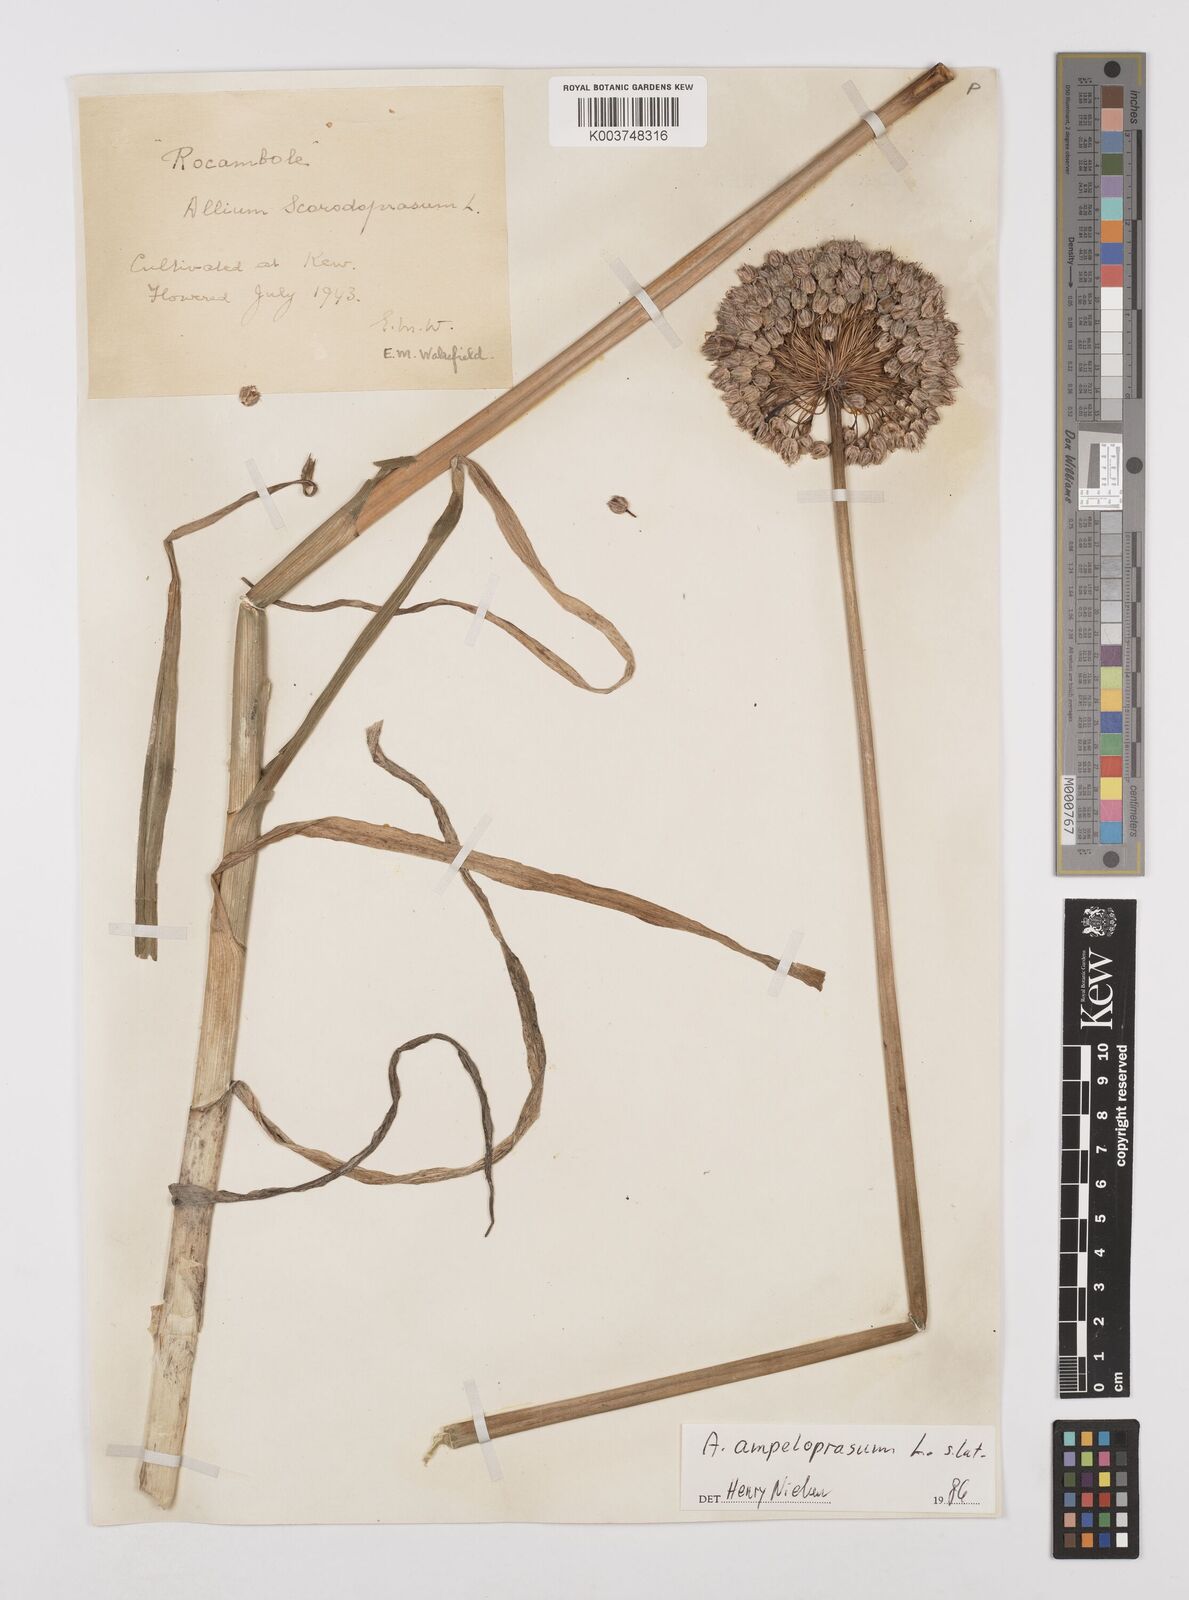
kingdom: Plantae
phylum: Tracheophyta
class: Liliopsida
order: Asparagales
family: Amaryllidaceae
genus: Allium
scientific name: Allium
